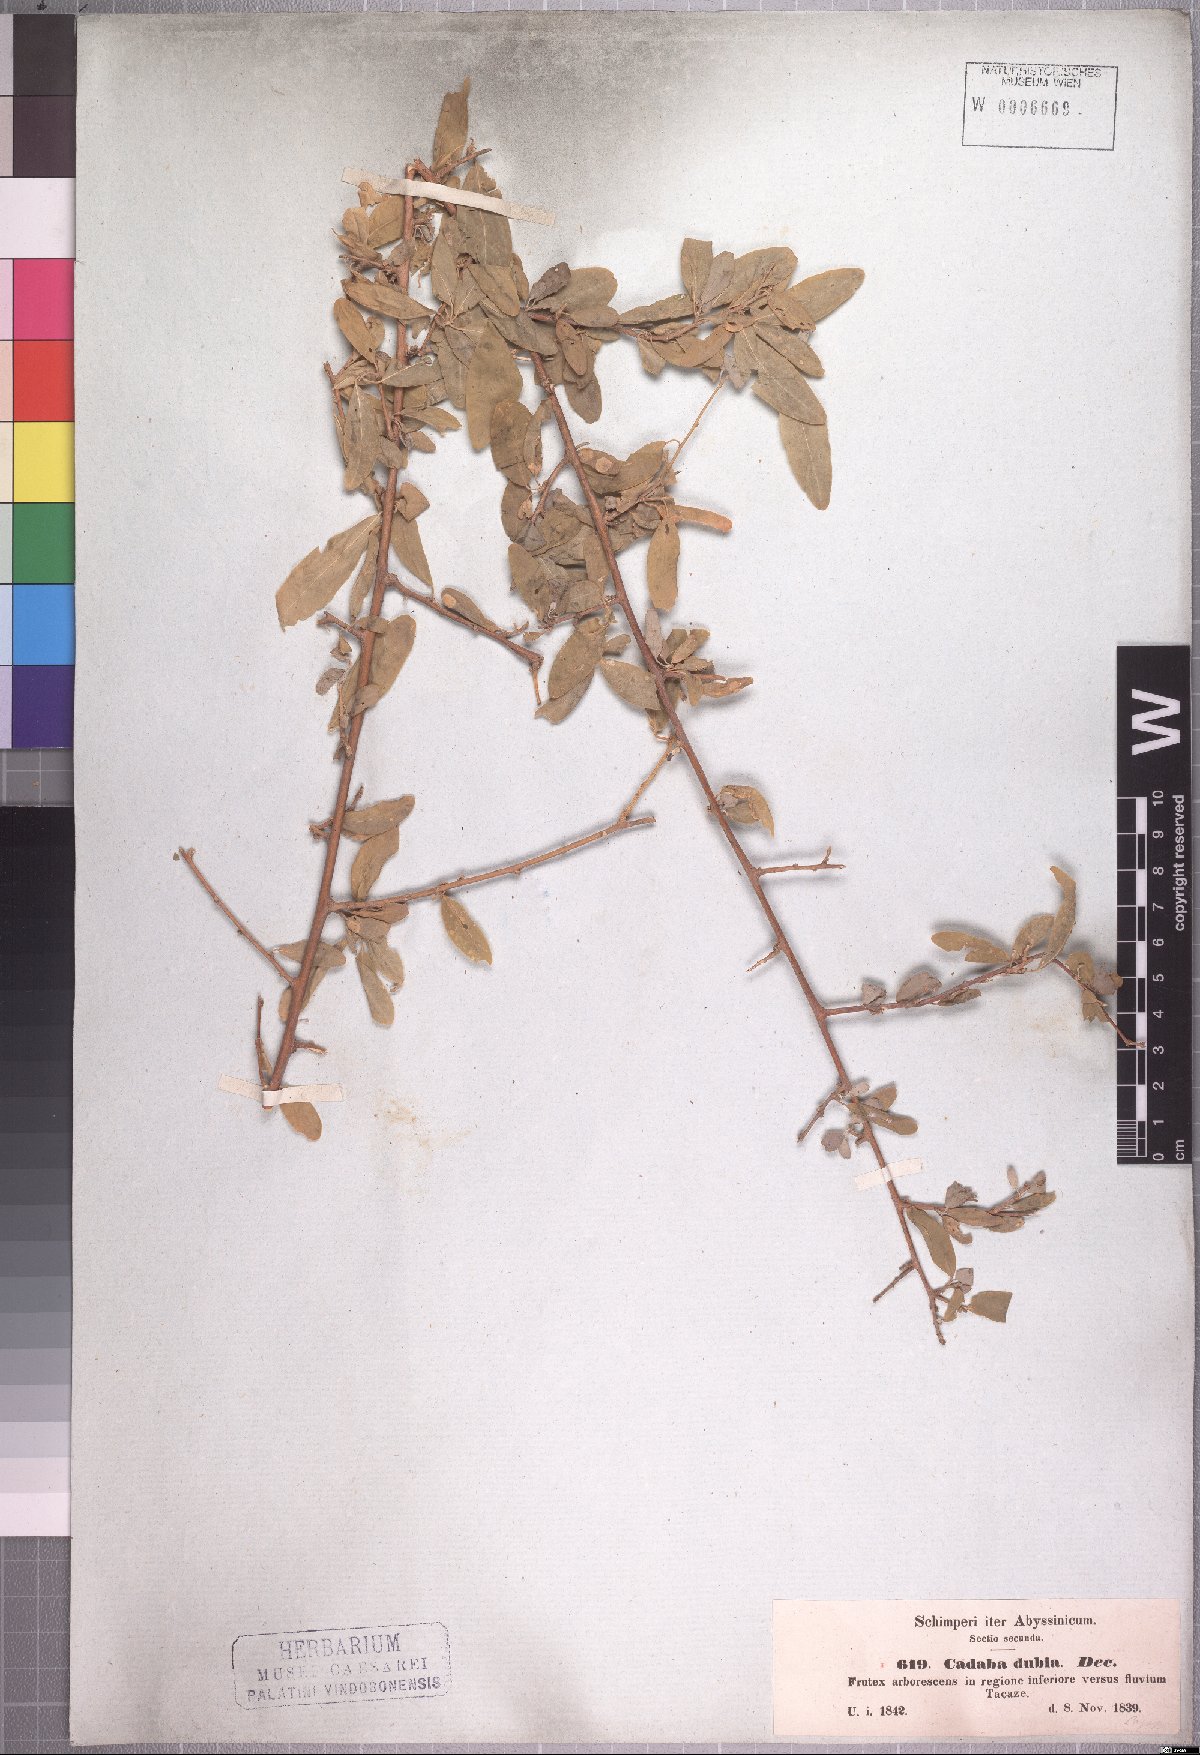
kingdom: Plantae
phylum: Tracheophyta
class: Magnoliopsida
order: Brassicales
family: Capparaceae
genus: Cadaba
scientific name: Cadaba farinosa
